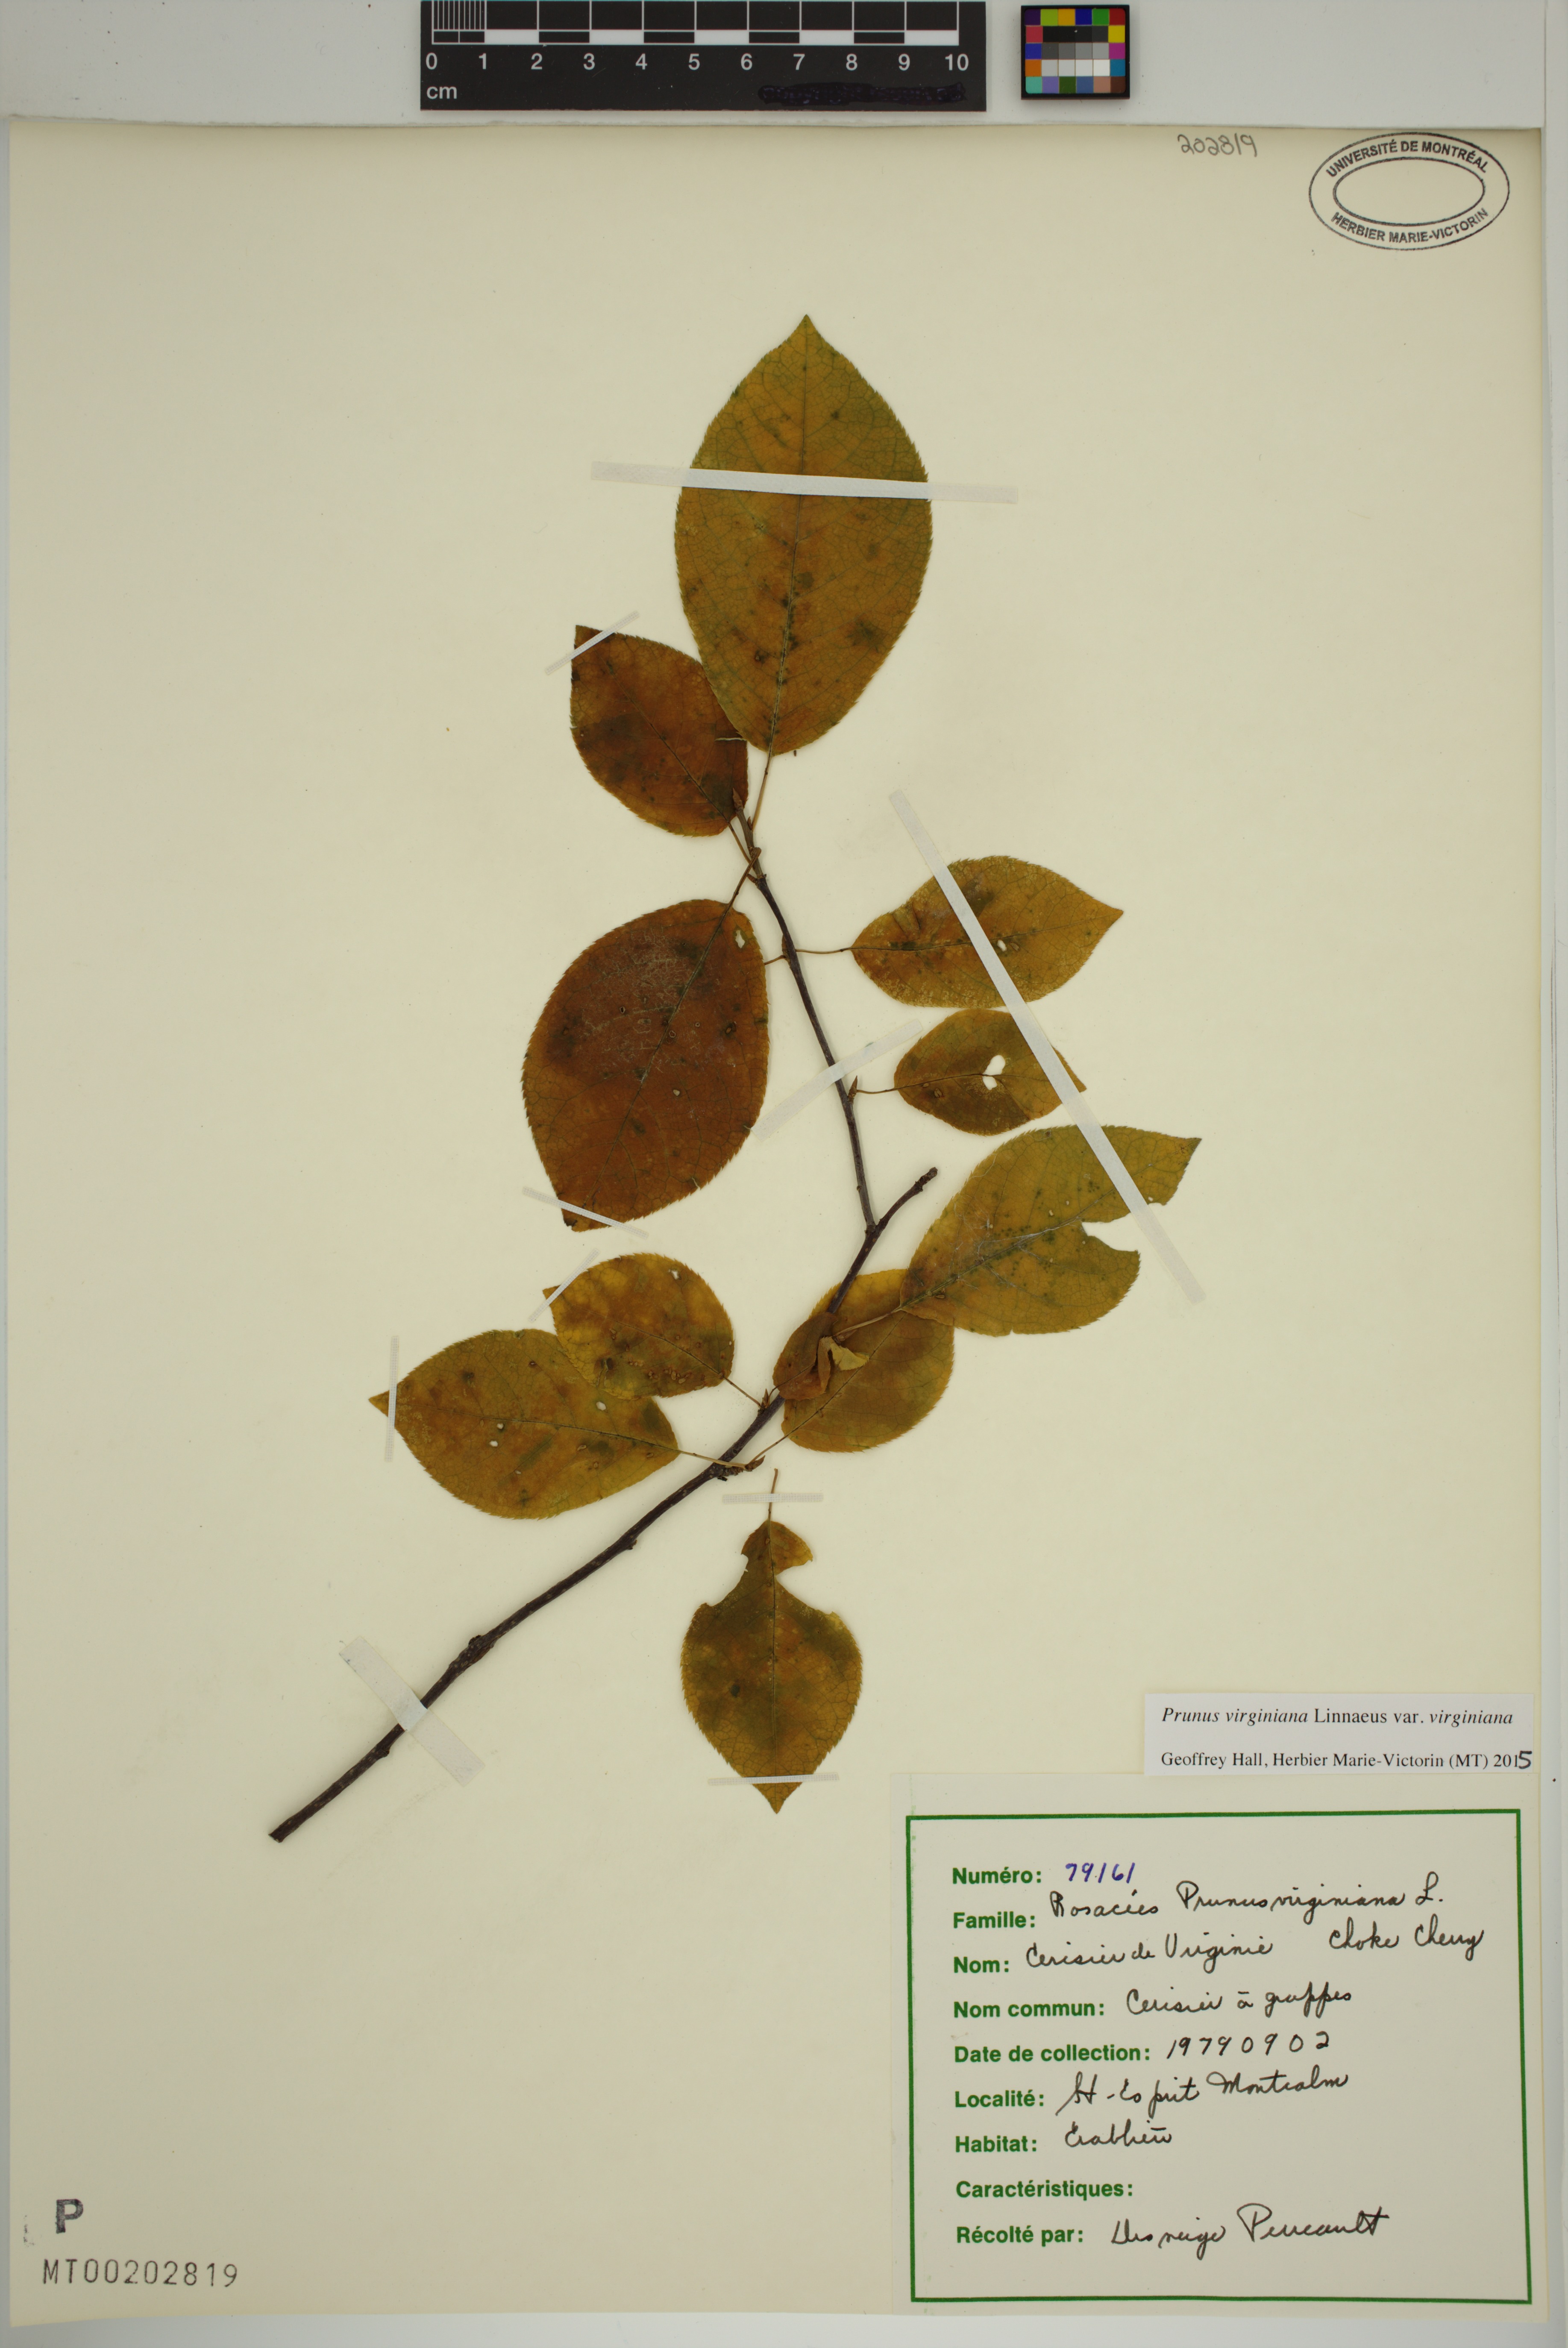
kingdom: Plantae
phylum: Tracheophyta
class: Magnoliopsida
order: Rosales
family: Rosaceae
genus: Prunus
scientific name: Prunus virginiana
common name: Chokecherry
